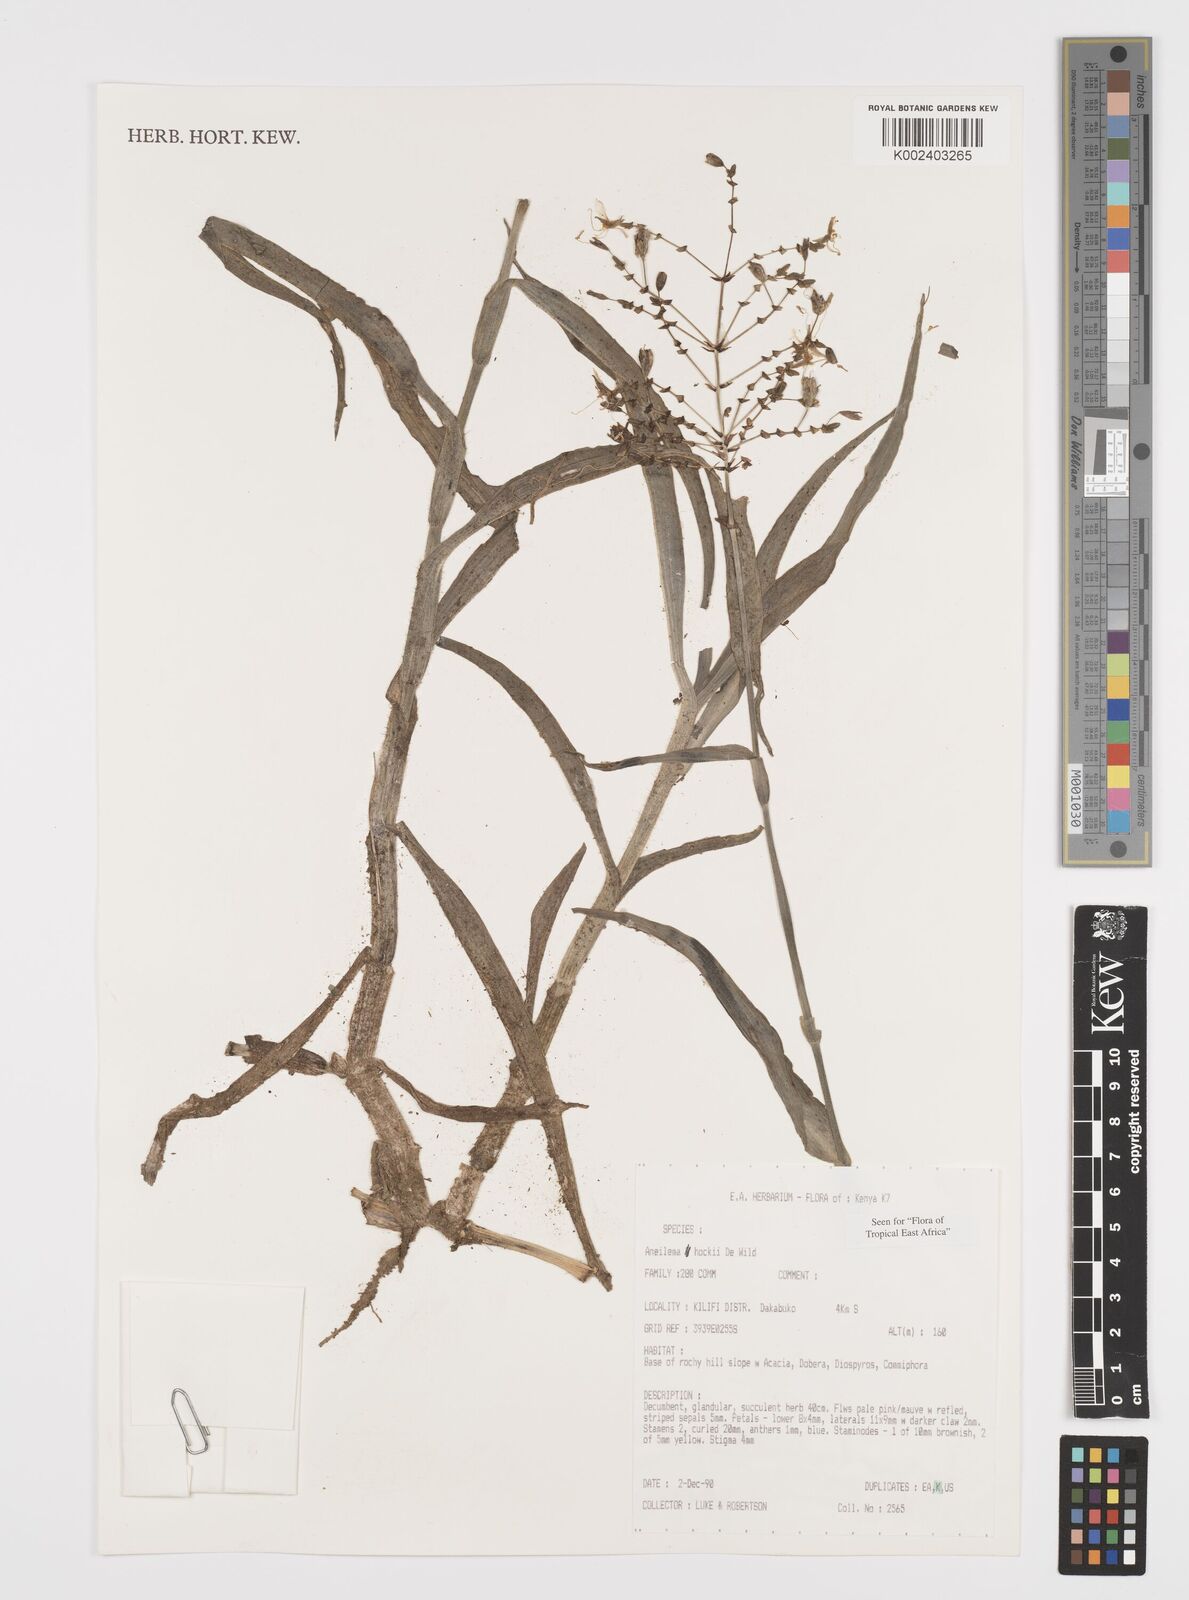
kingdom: Plantae
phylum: Tracheophyta
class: Liliopsida
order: Commelinales
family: Commelinaceae
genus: Aneilema
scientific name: Aneilema hockii
